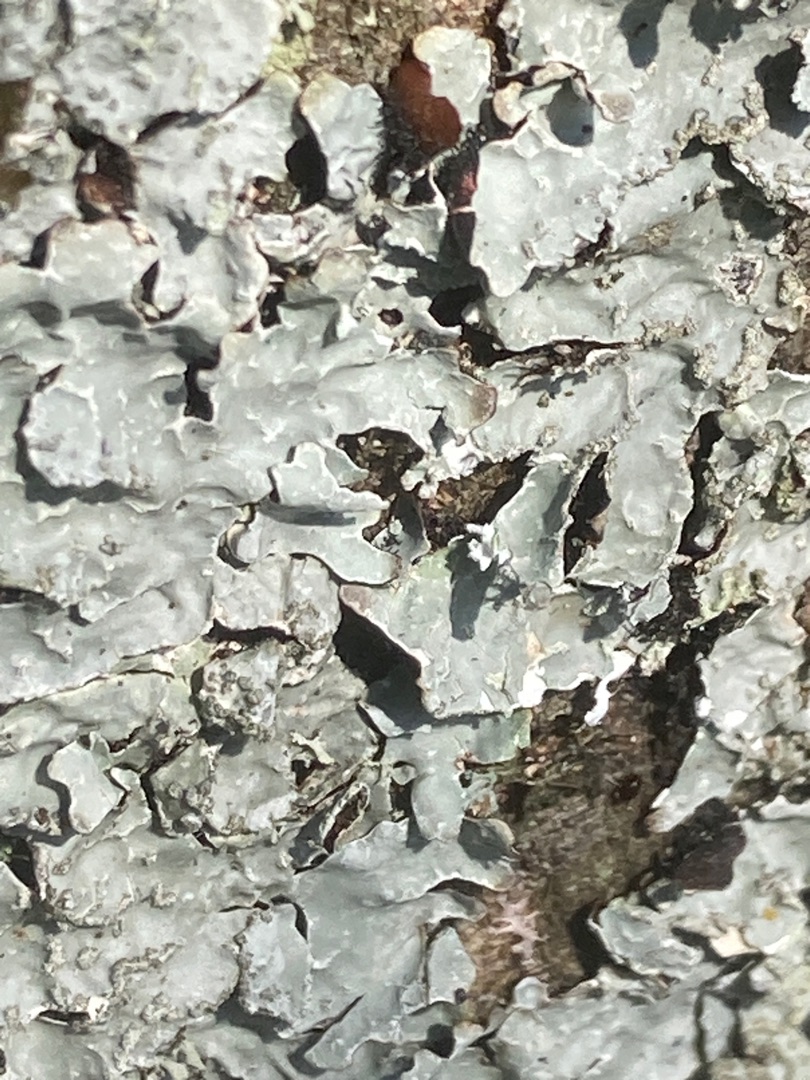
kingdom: Fungi
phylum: Ascomycota
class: Lecanoromycetes
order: Lecanorales
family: Parmeliaceae
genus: Parmelia
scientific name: Parmelia sulcata
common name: Rynket skållav
